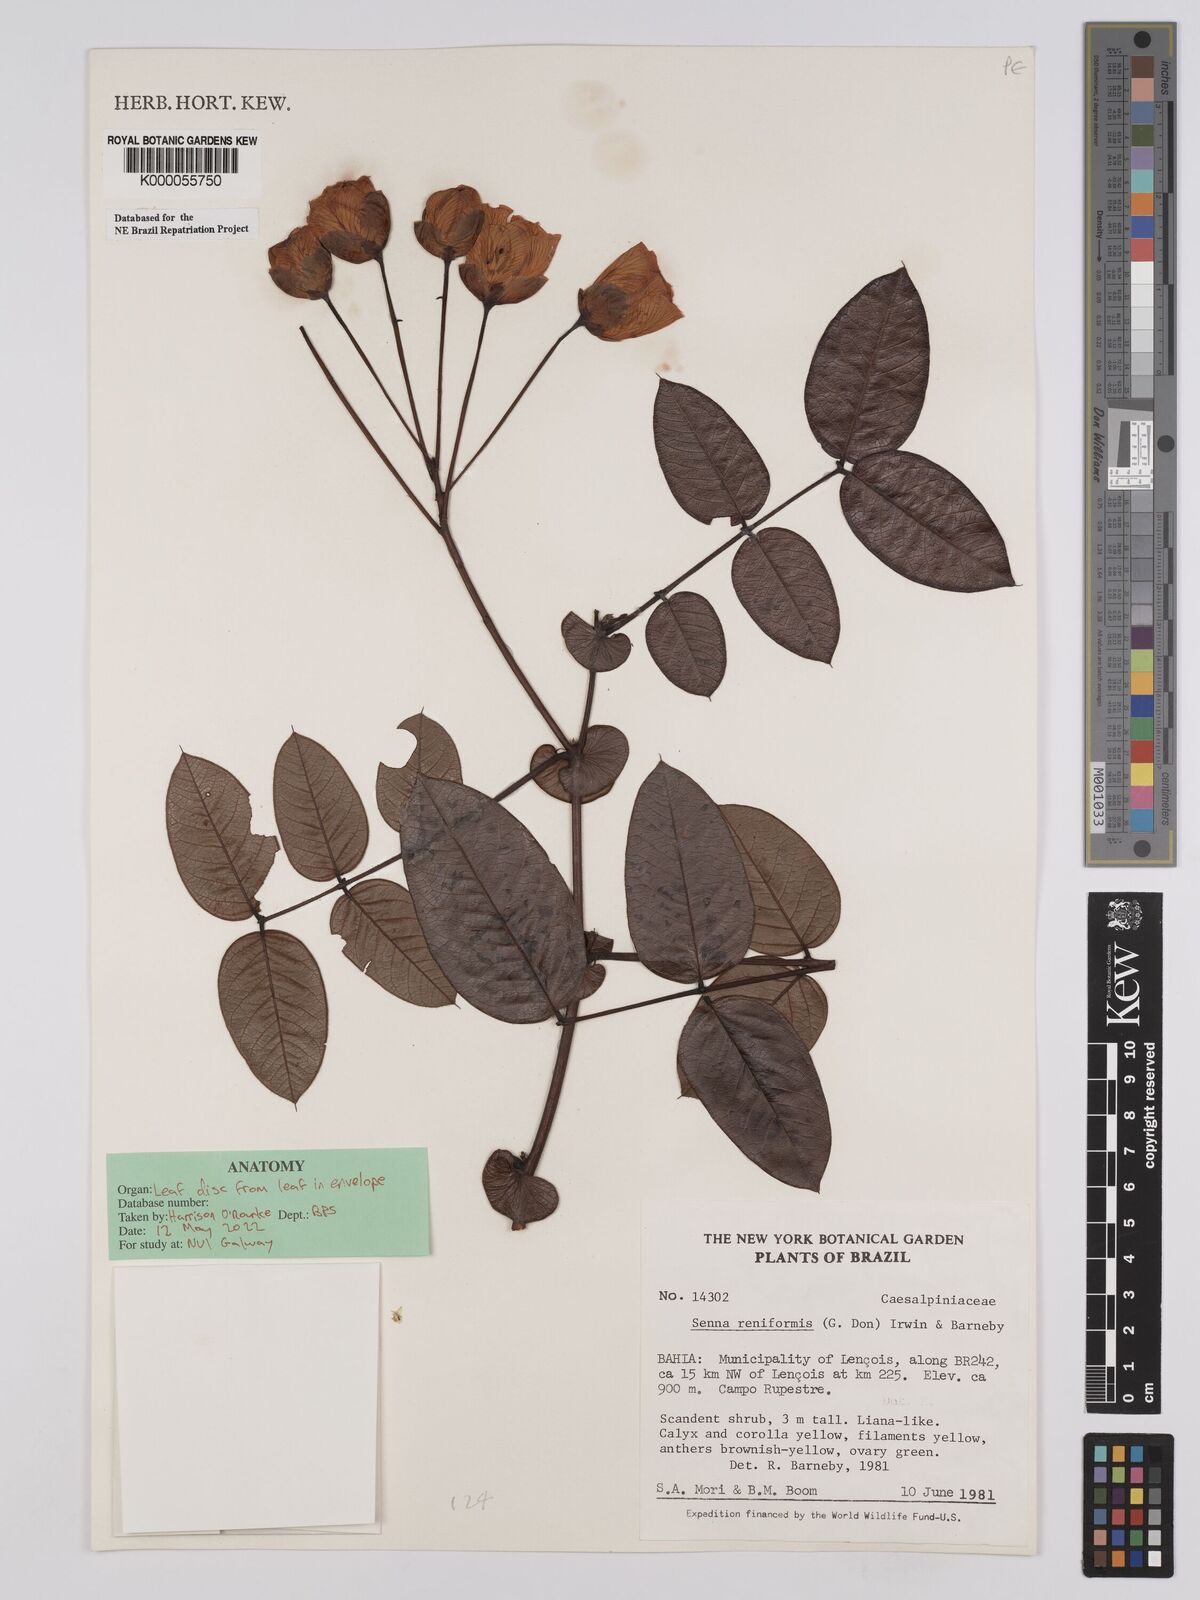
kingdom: Plantae
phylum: Tracheophyta
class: Magnoliopsida
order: Fabales
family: Fabaceae
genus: Senna
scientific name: Senna reniformis
